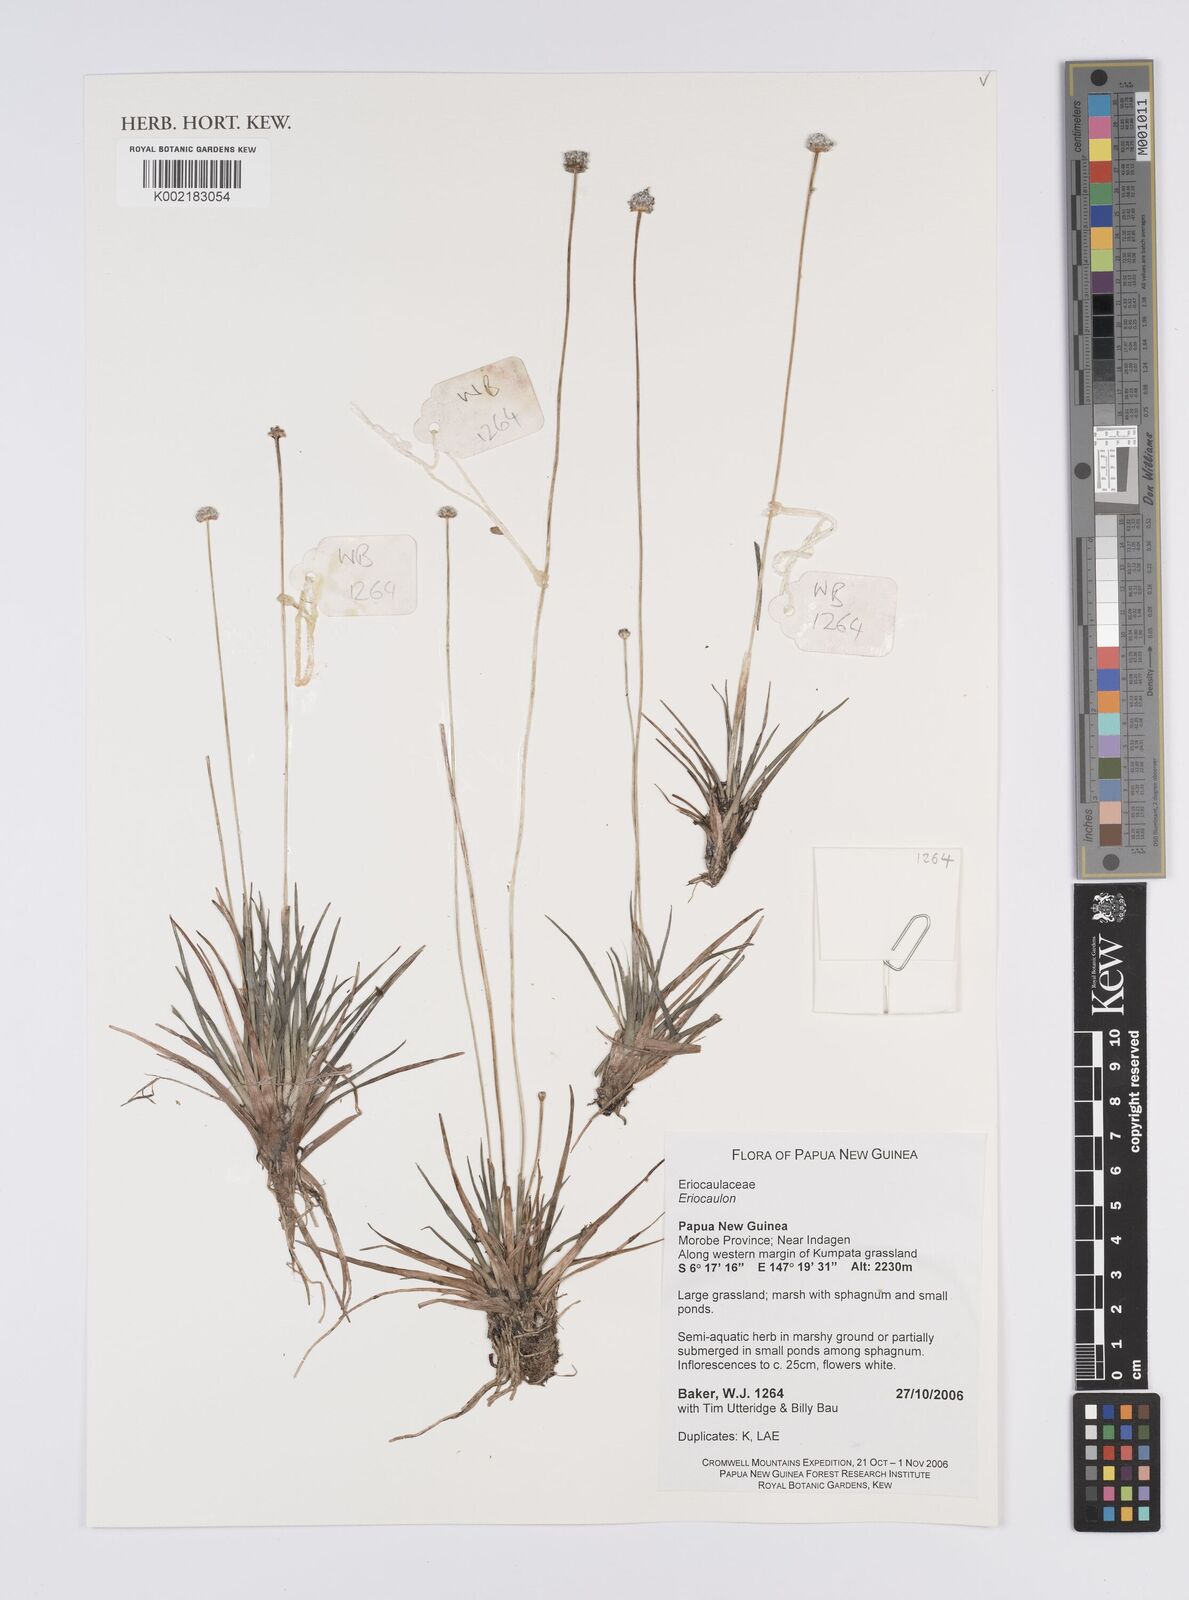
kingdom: Plantae
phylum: Tracheophyta
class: Liliopsida
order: Poales
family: Eriocaulaceae
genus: Eriocaulon
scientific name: Eriocaulon
